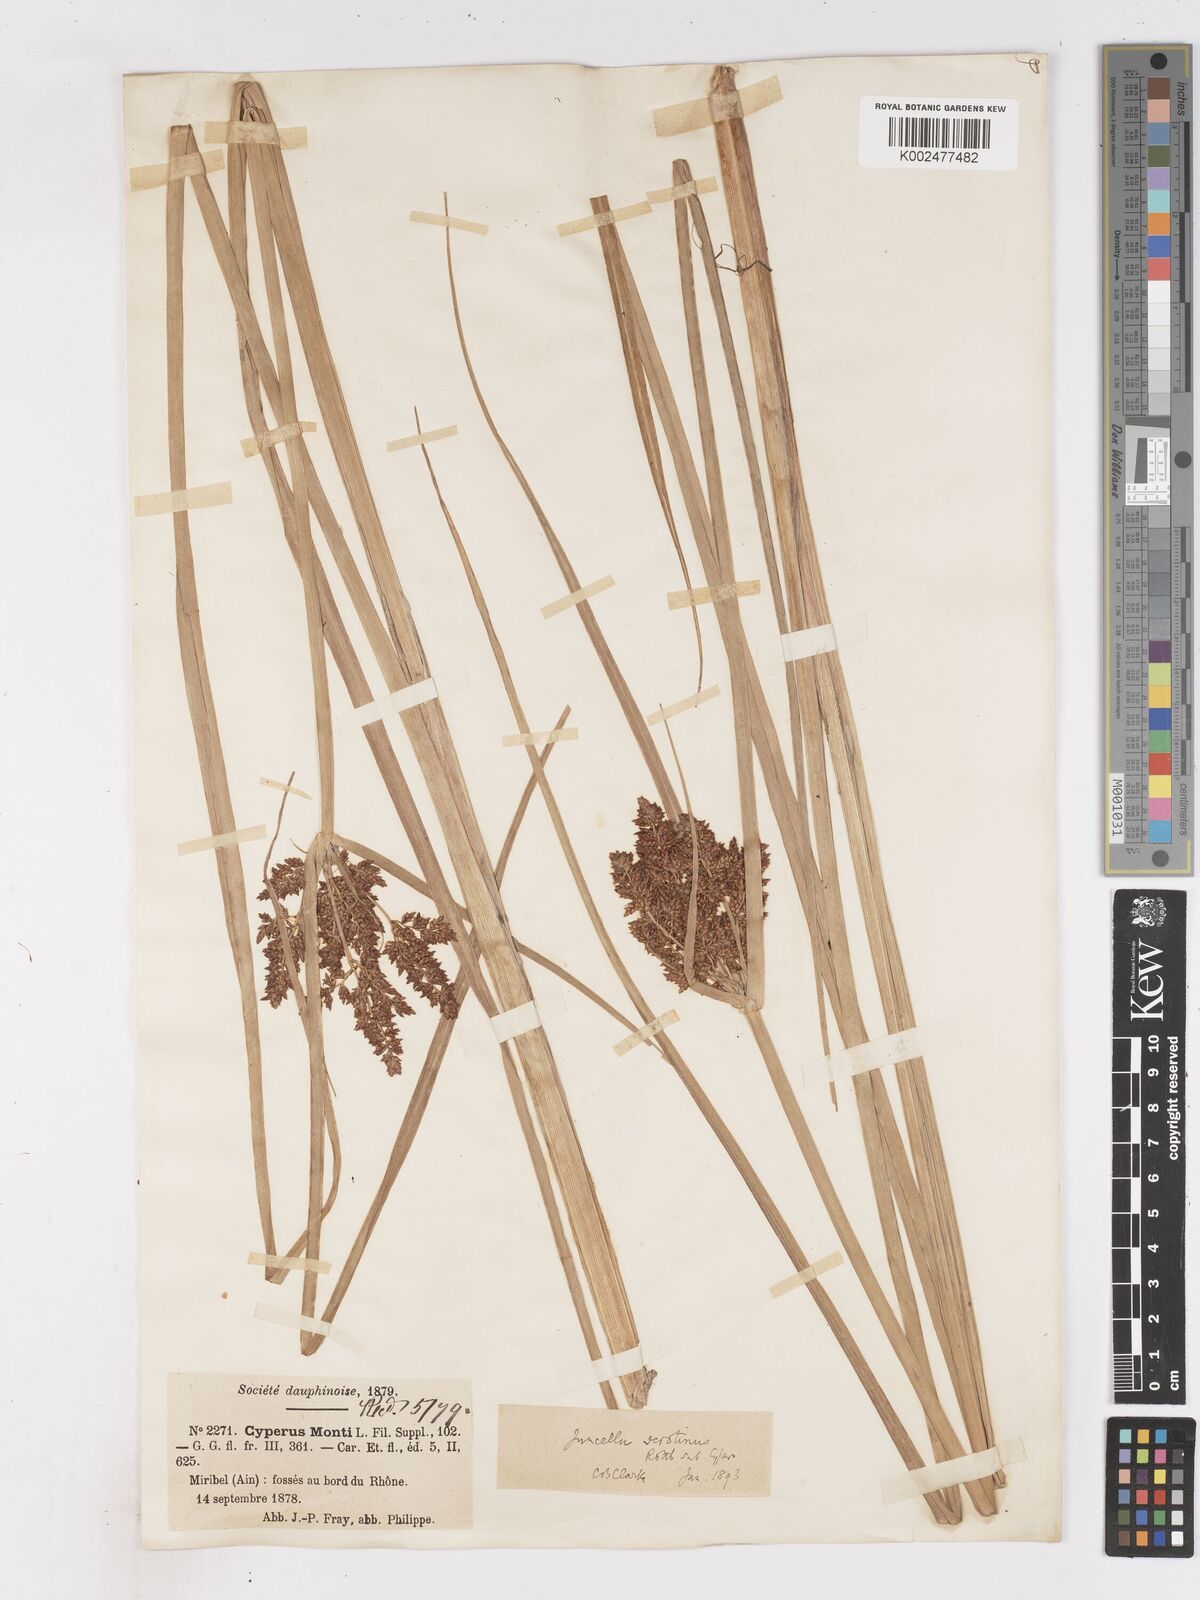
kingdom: Plantae
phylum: Tracheophyta
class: Liliopsida
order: Poales
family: Cyperaceae
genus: Cyperus
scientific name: Cyperus serotinus
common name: Tidalmarsh flatsedge
